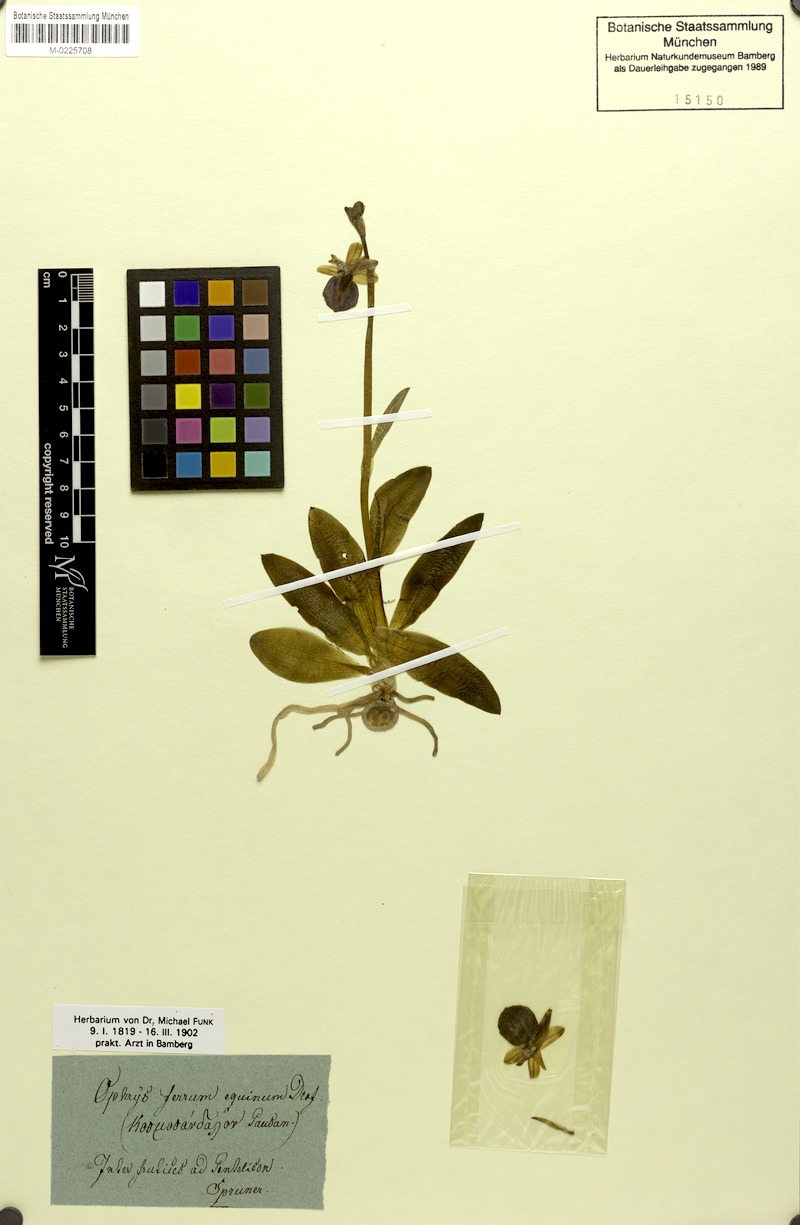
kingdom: Plantae
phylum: Tracheophyta
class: Liliopsida
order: Asparagales
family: Orchidaceae
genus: Ophrys
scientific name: Ophrys ferrum-equinum
